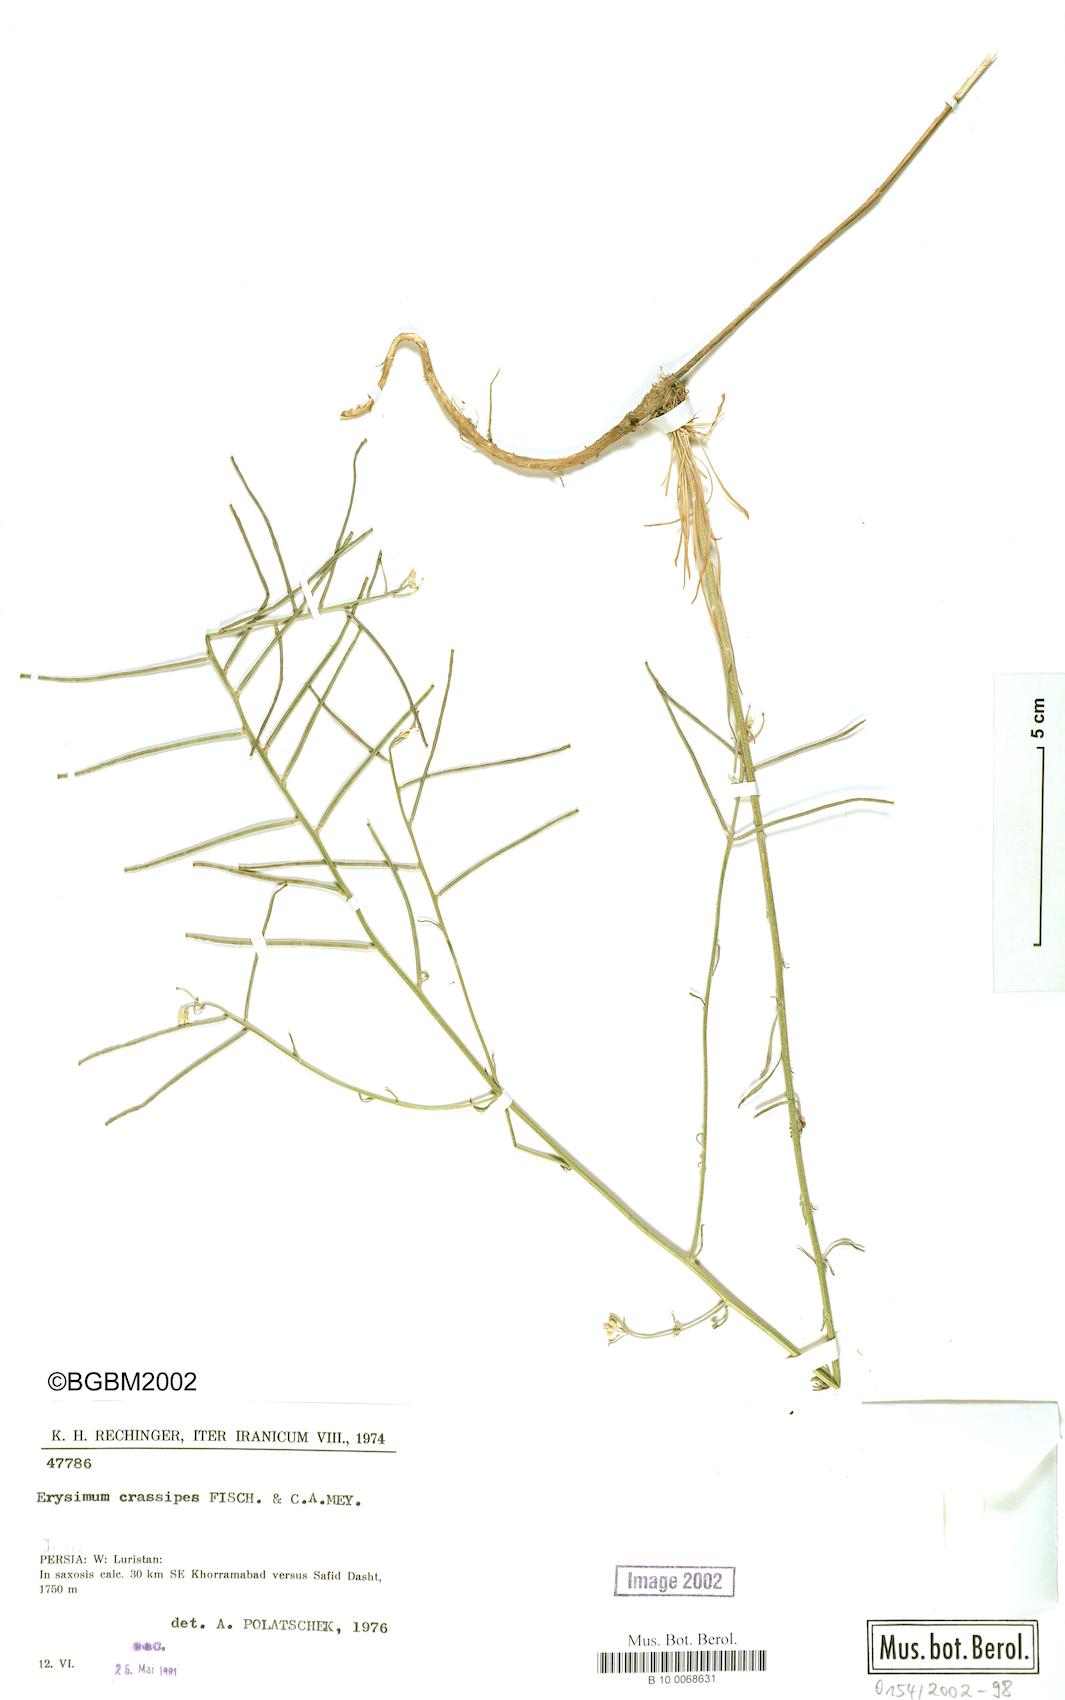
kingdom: Plantae
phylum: Tracheophyta
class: Magnoliopsida
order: Brassicales
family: Brassicaceae
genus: Erysimum
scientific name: Erysimum caespitosum
